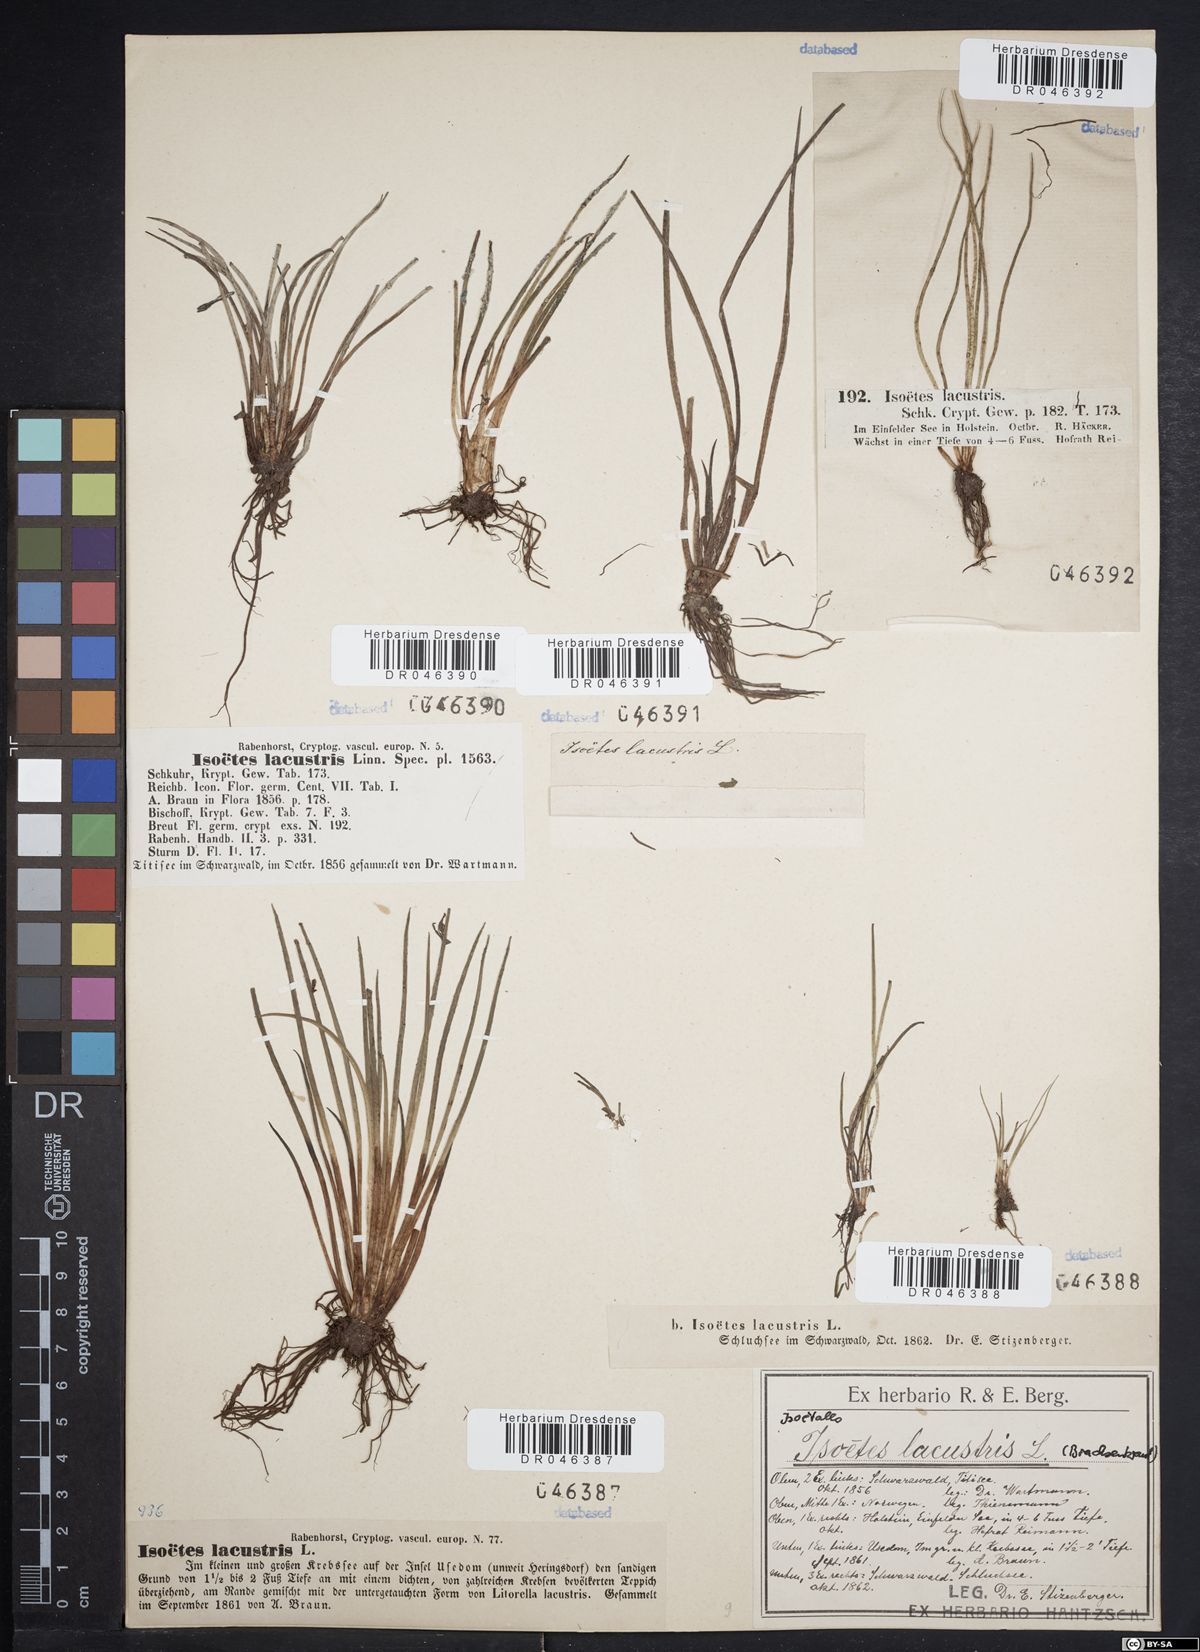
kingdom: Plantae
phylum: Tracheophyta
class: Lycopodiopsida
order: Isoetales
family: Isoetaceae
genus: Isoetes
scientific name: Isoetes lacustris
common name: Common quillwort
